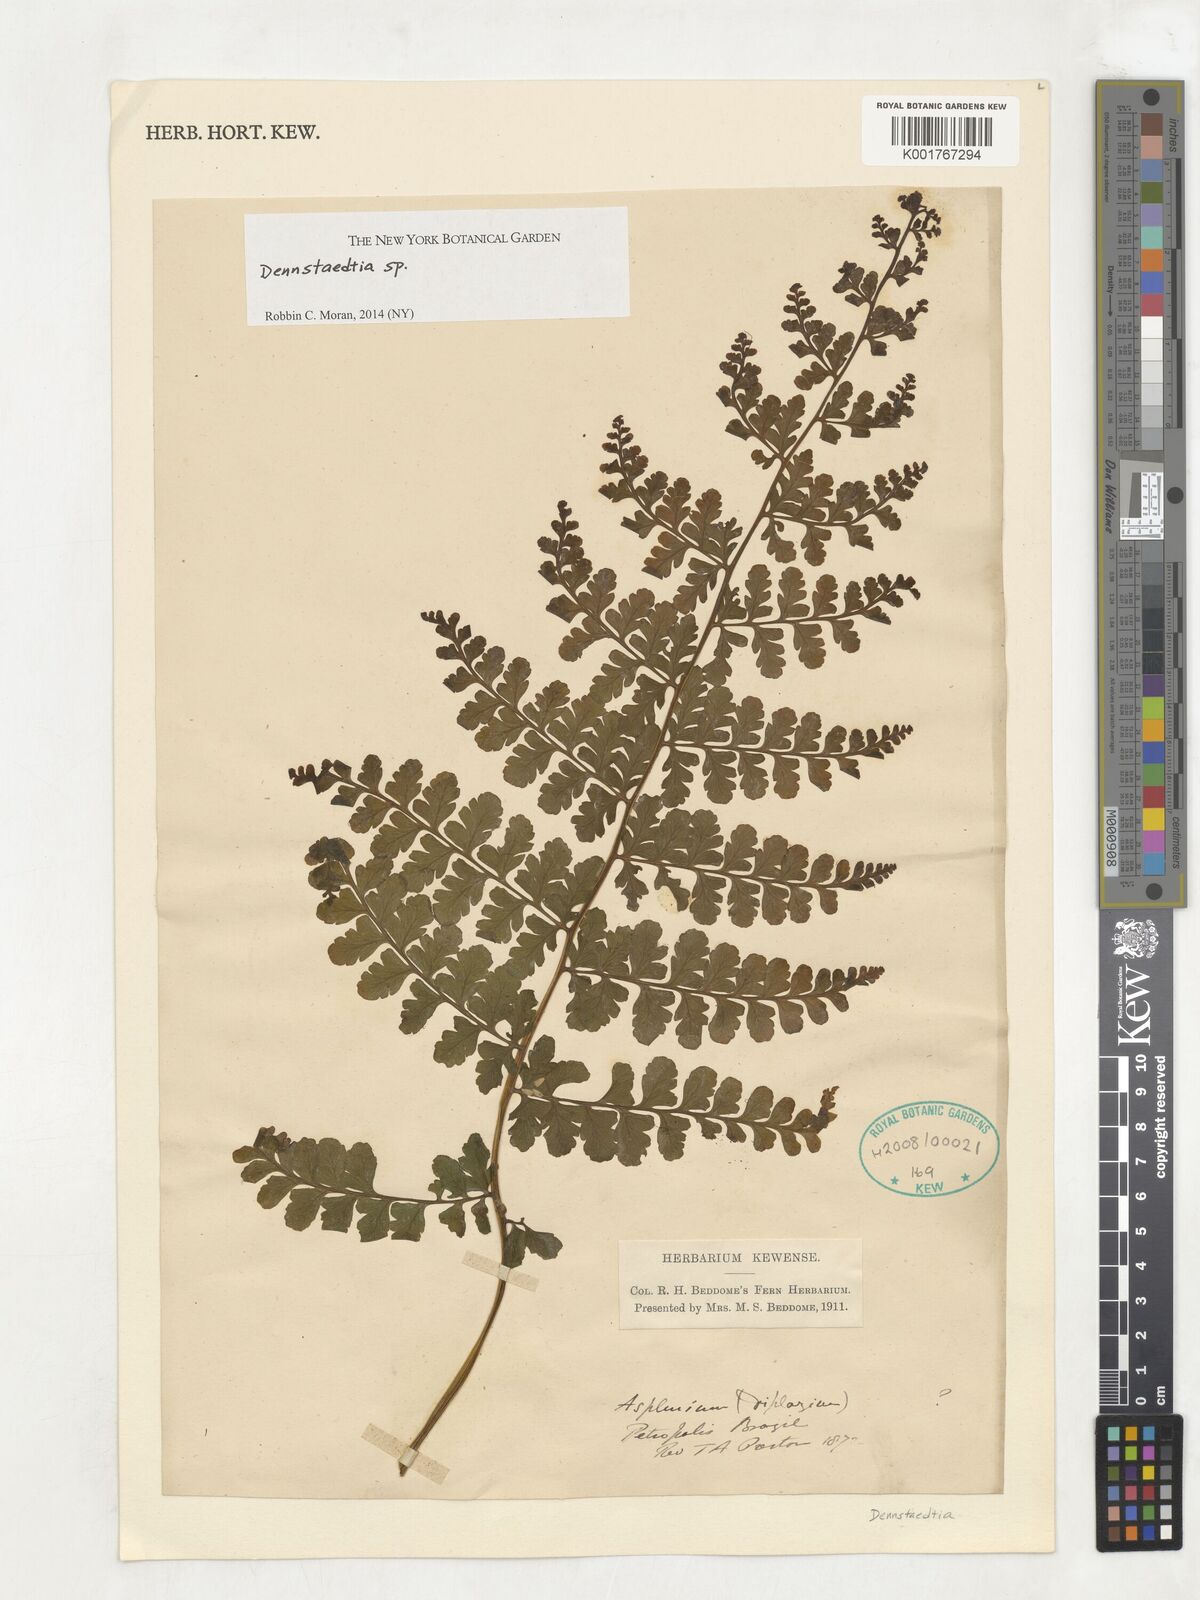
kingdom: Plantae
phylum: Tracheophyta
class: Polypodiopsida
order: Polypodiales
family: Dennstaedtiaceae
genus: Dennstaedtia
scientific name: Dennstaedtia
